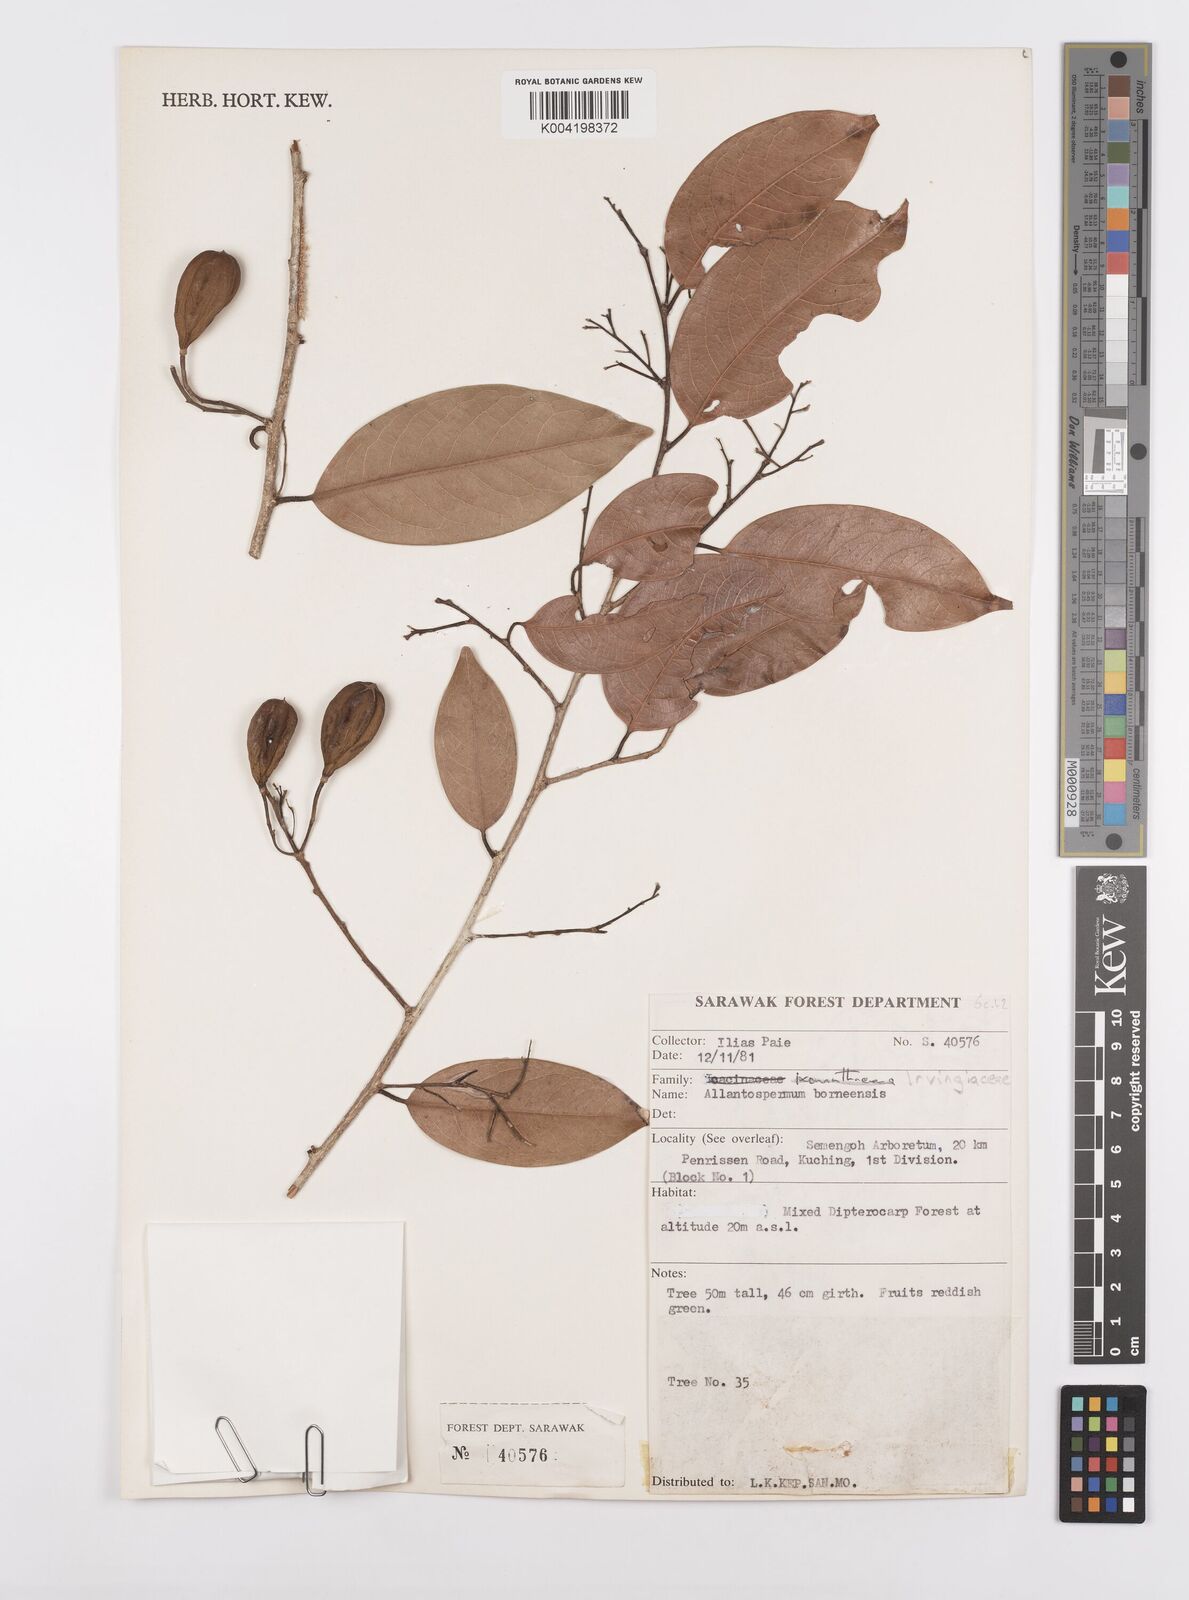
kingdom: Plantae
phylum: Tracheophyta
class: Magnoliopsida
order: Malpighiales
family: Ixonanthaceae
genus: Allantospermum
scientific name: Allantospermum borneense
